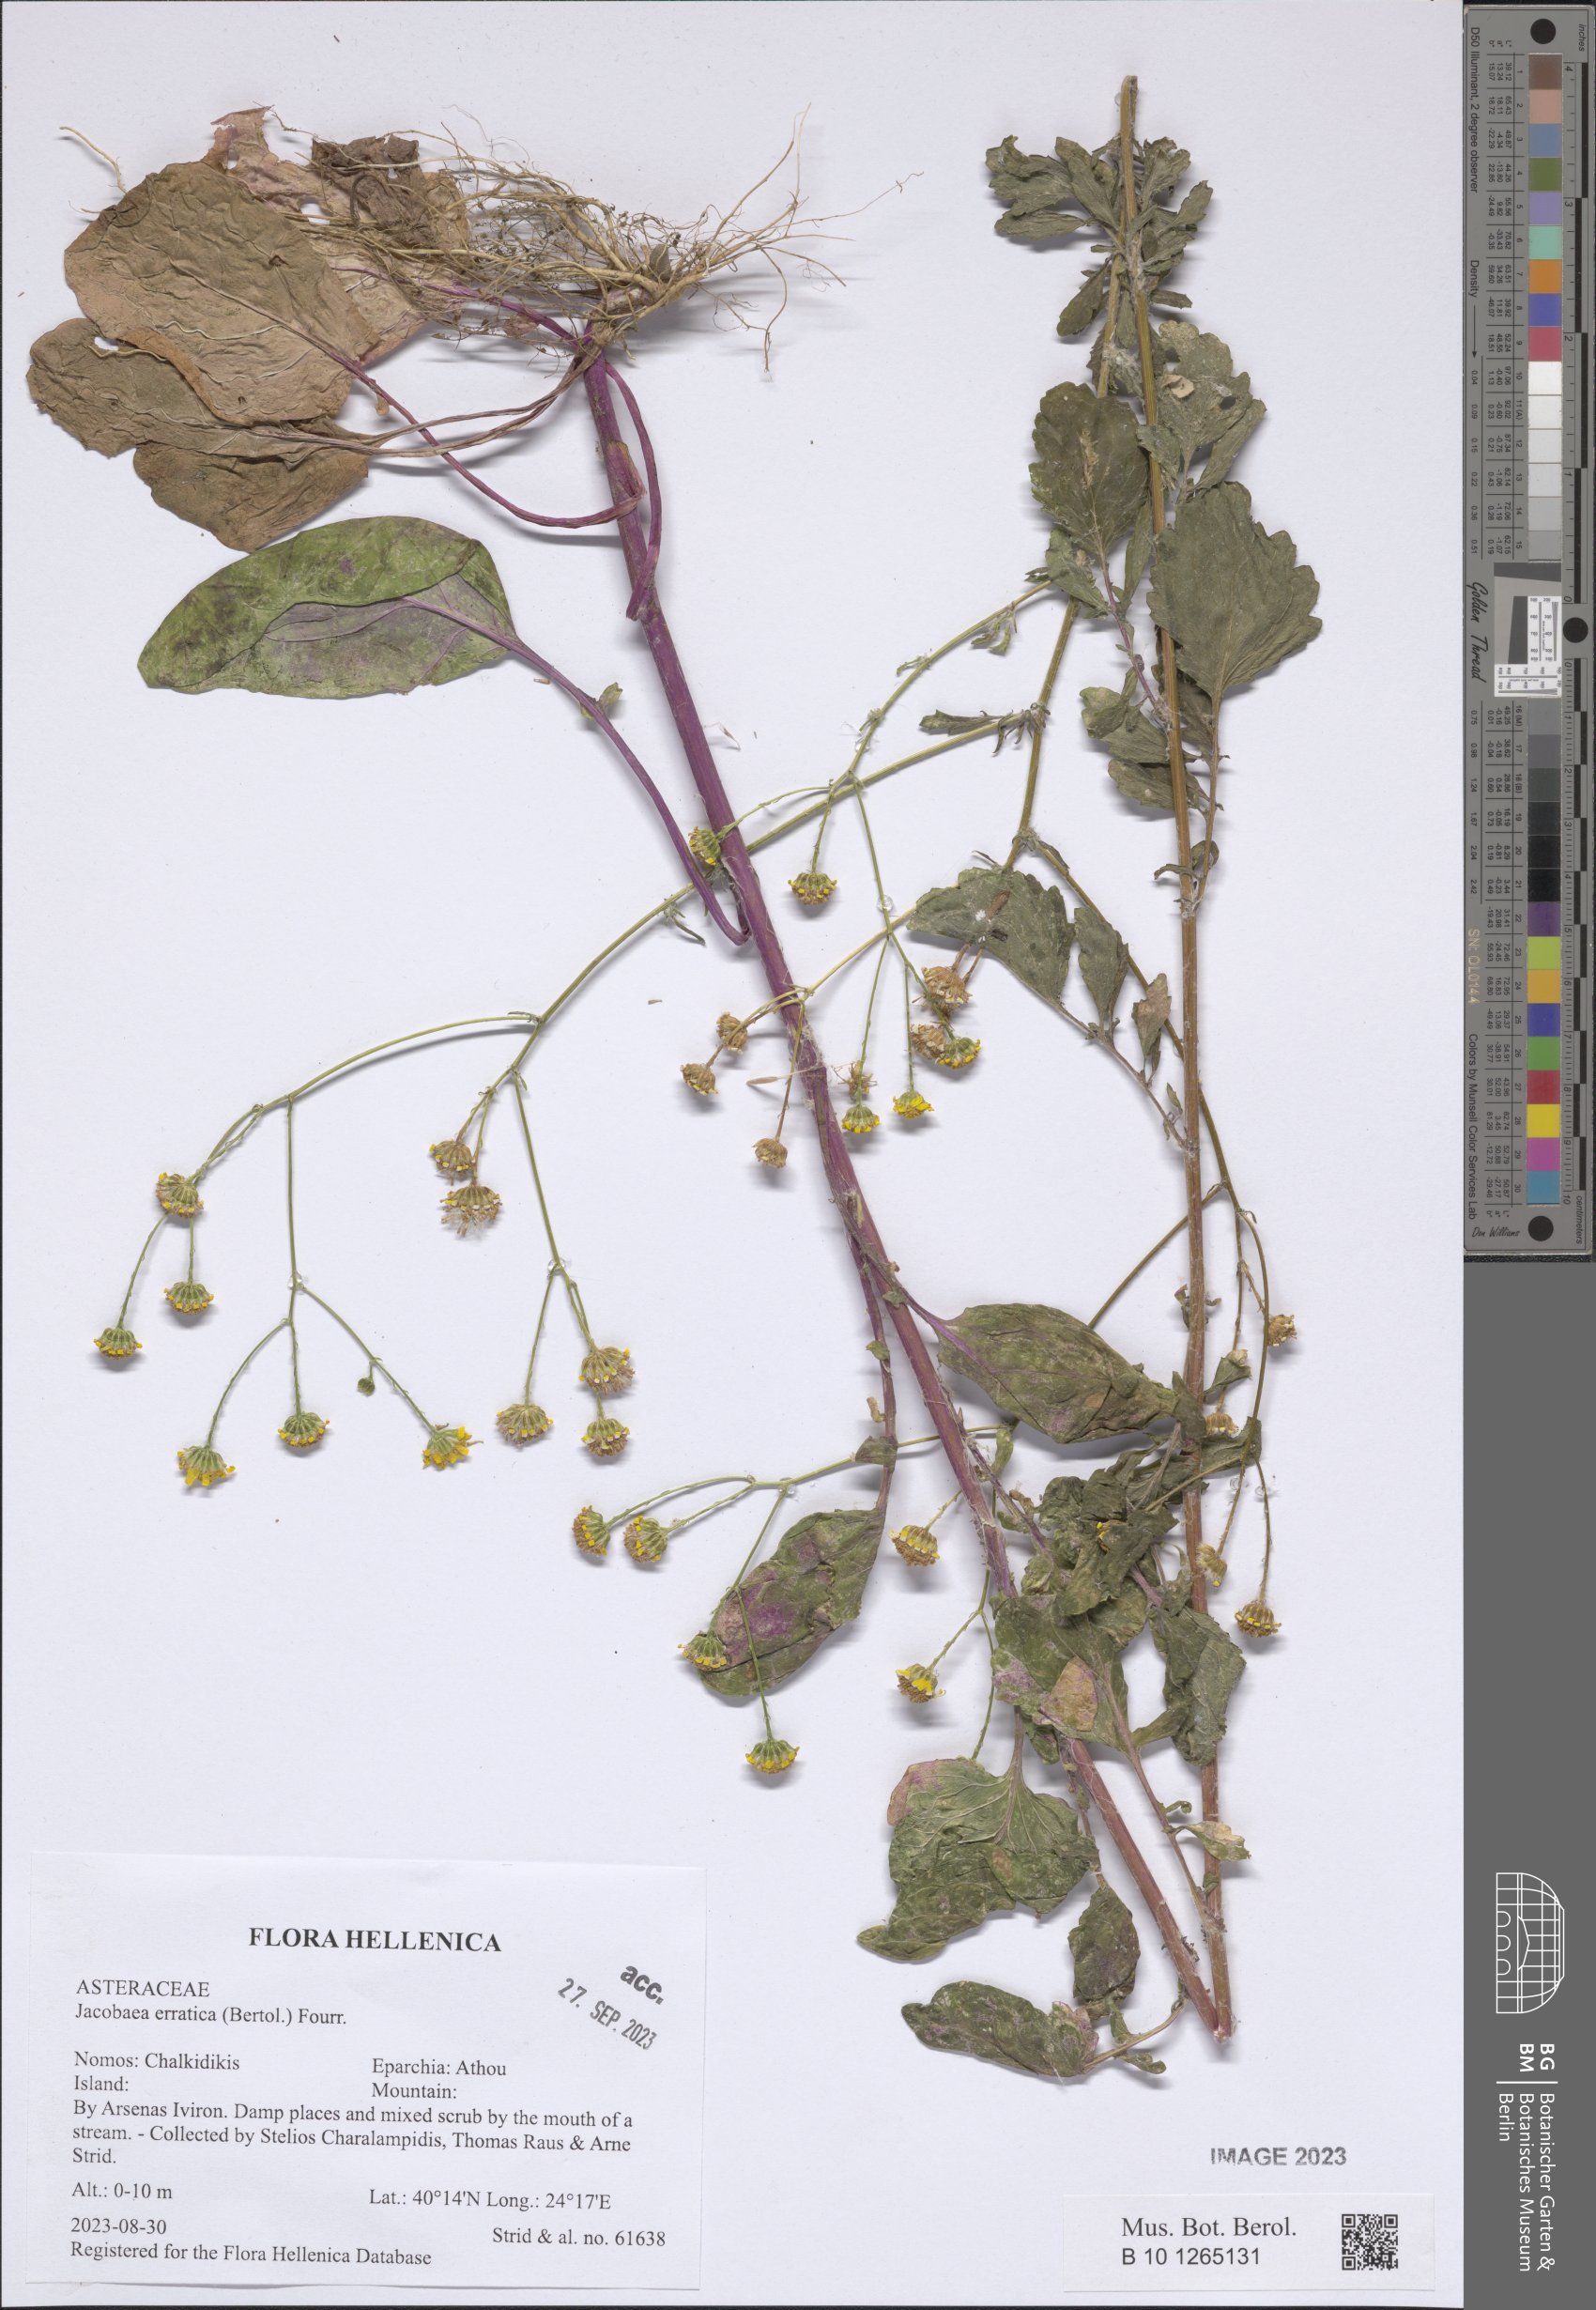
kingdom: Plantae
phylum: Tracheophyta
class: Magnoliopsida
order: Asterales
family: Asteraceae
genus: Jacobaea
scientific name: Jacobaea erratica
